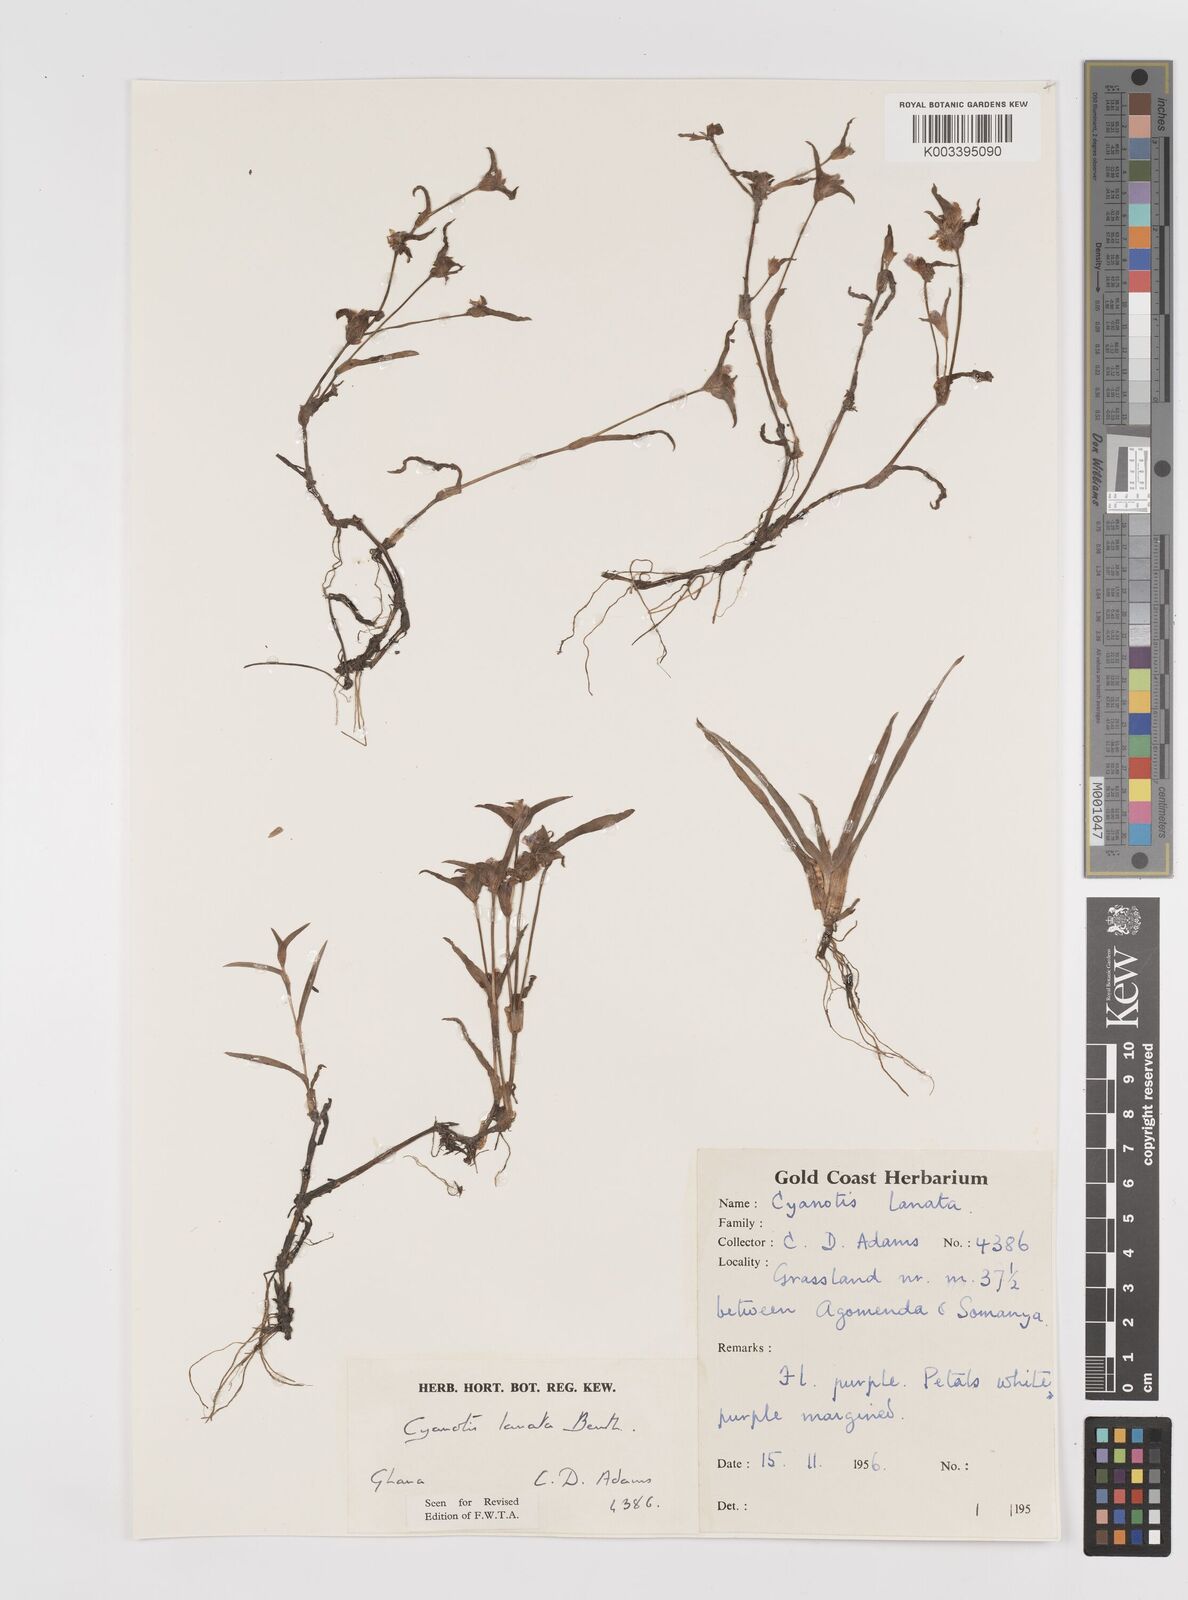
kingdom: Plantae
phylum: Tracheophyta
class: Liliopsida
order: Commelinales
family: Commelinaceae
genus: Cyanotis
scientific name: Cyanotis lanata
